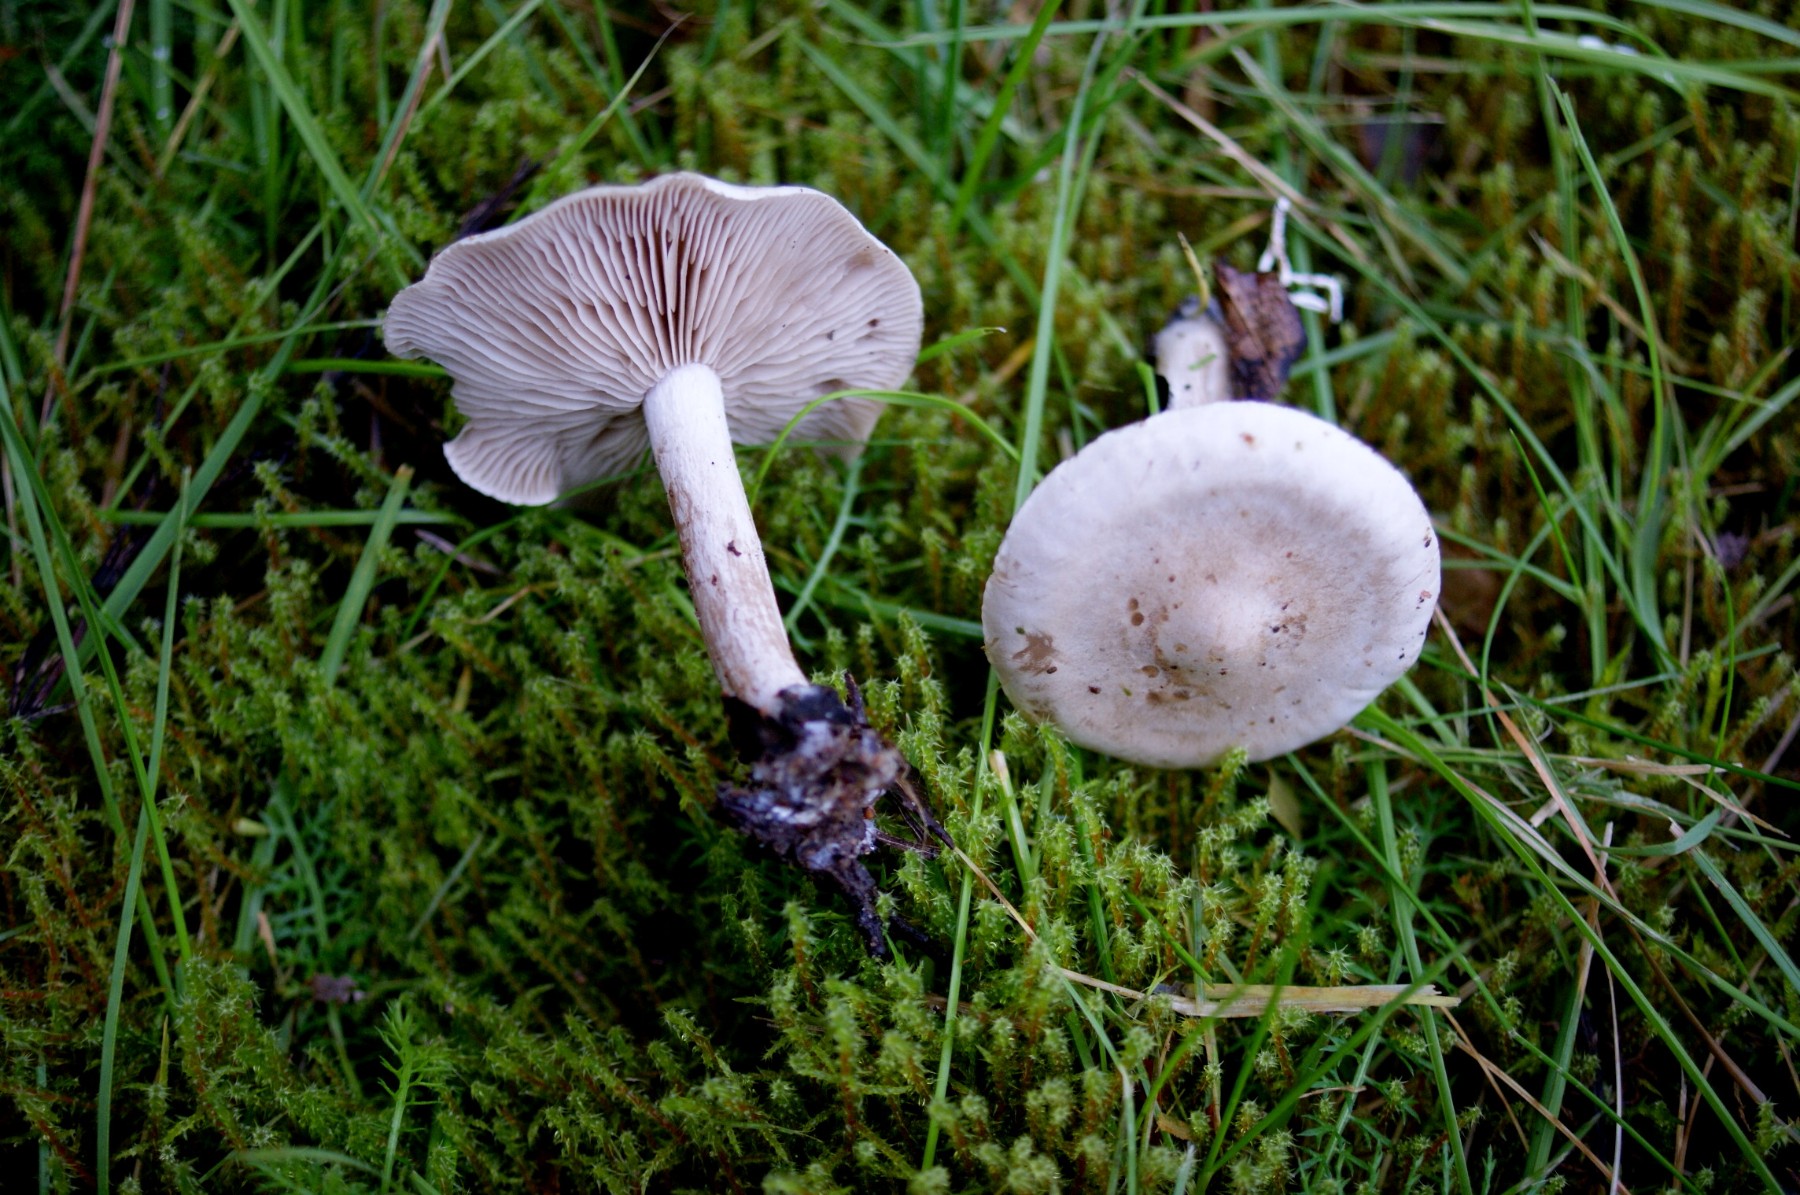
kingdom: Fungi
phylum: Basidiomycota
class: Agaricomycetes
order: Agaricales
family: Tricholomataceae
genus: Clitocybe
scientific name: Clitocybe rivulosa
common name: eng-tragthat
